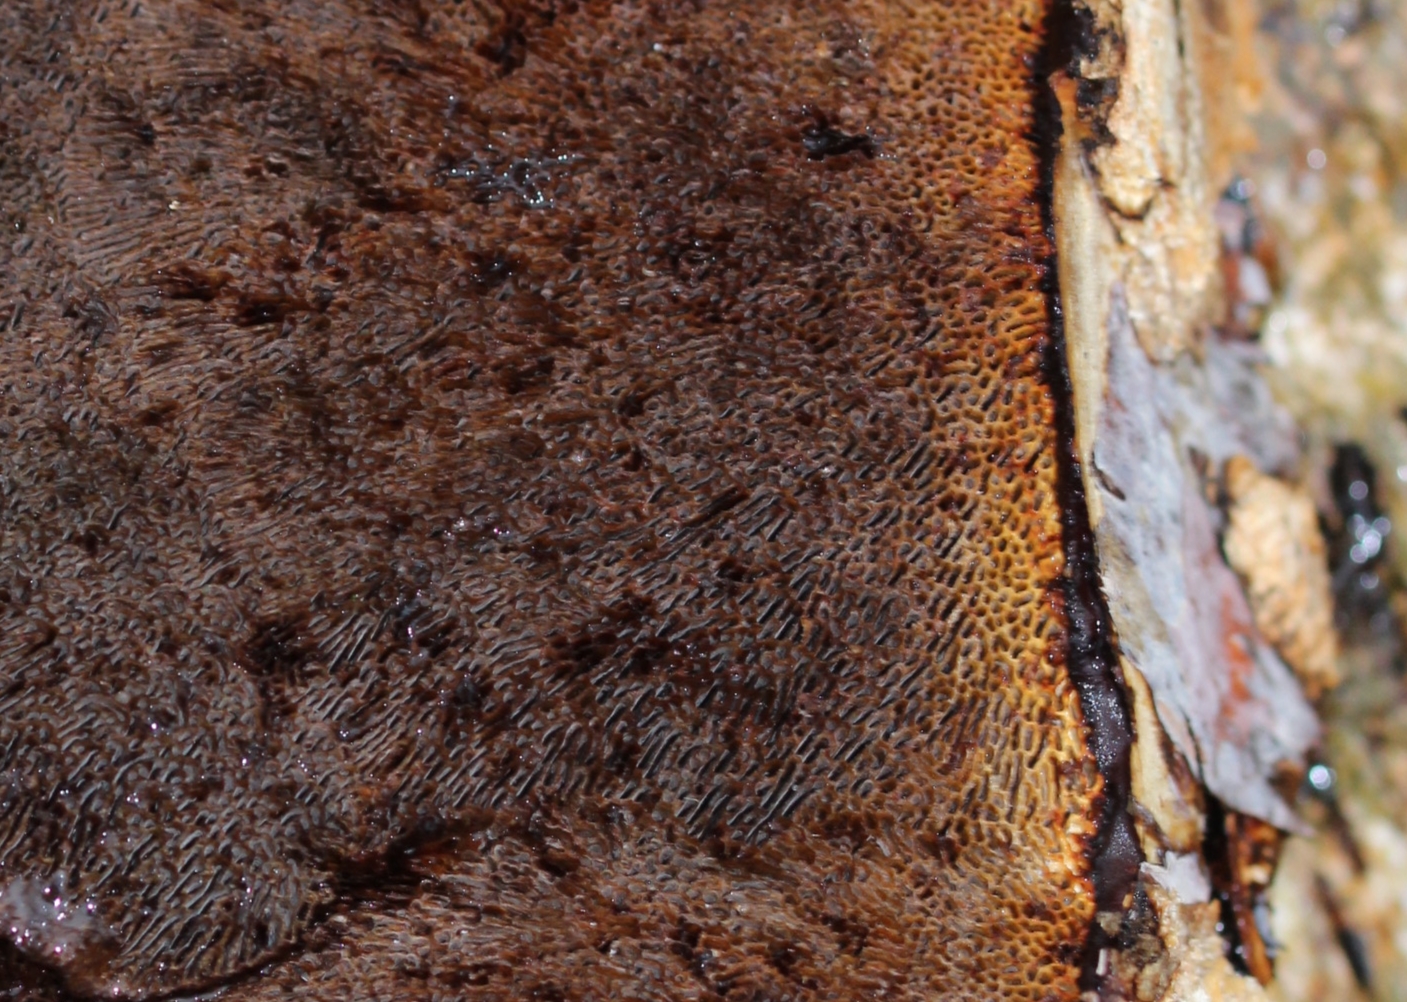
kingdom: Fungi
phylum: Basidiomycota
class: Agaricomycetes
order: Polyporales
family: Polyporaceae
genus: Daedaleopsis
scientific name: Daedaleopsis confragosa
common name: rødmende læderporesvamp
